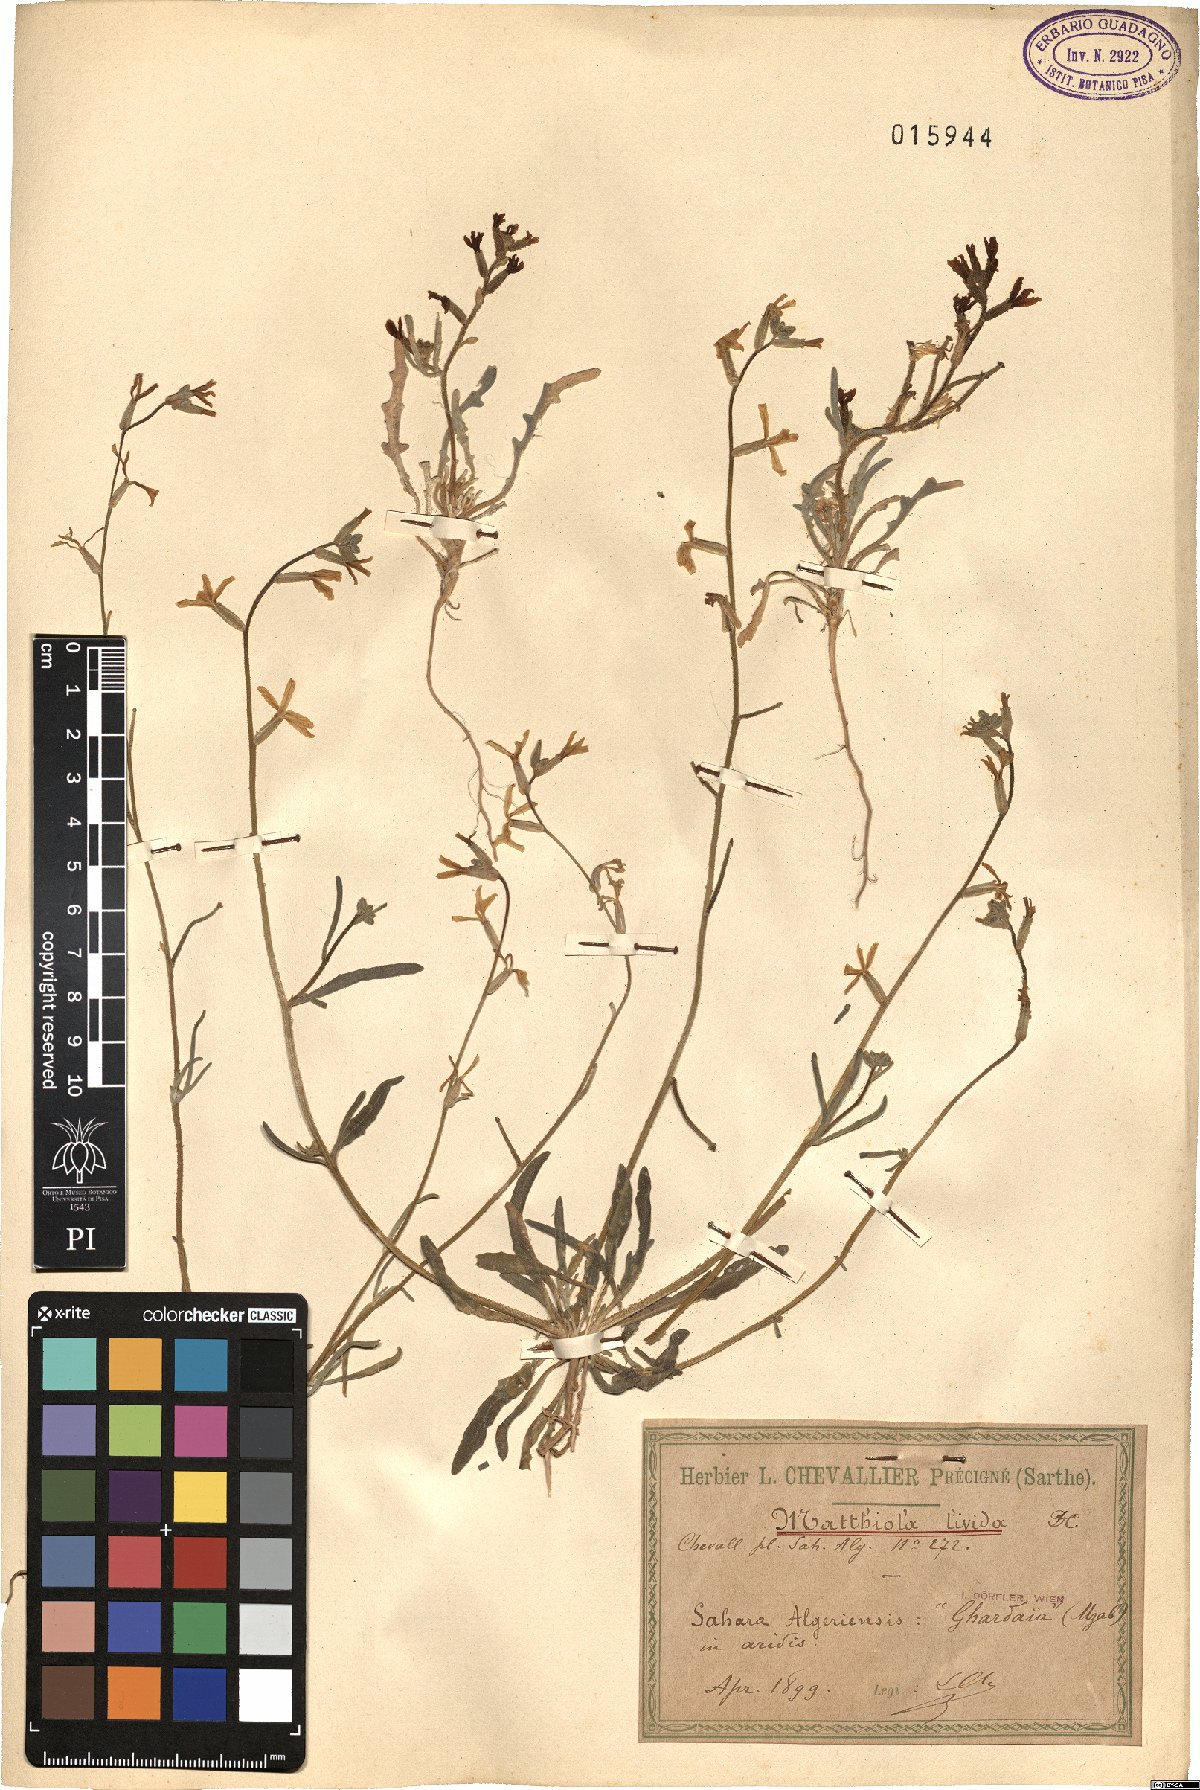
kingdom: Plantae
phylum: Tracheophyta
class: Magnoliopsida
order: Brassicales
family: Brassicaceae
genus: Matthiola
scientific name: Matthiola longipetala
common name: Night-scented stock
